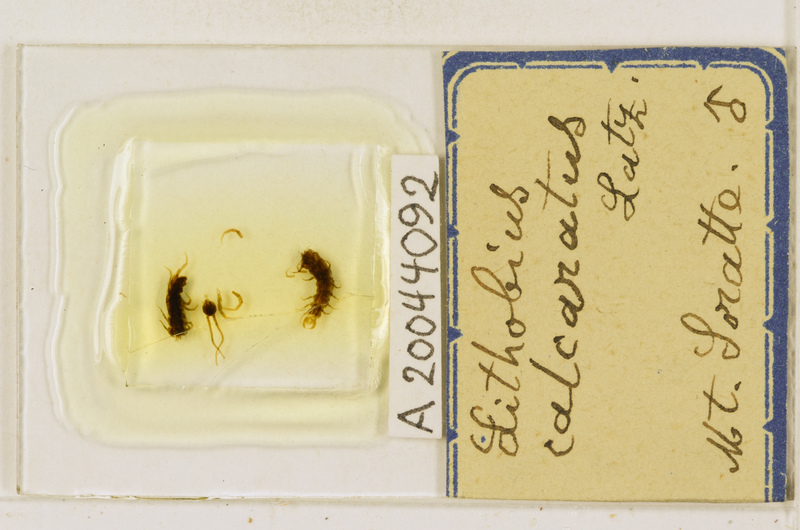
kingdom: Animalia
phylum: Arthropoda
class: Chilopoda
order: Lithobiomorpha
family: Lithobiidae
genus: Lithobius
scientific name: Lithobius calcaratus
